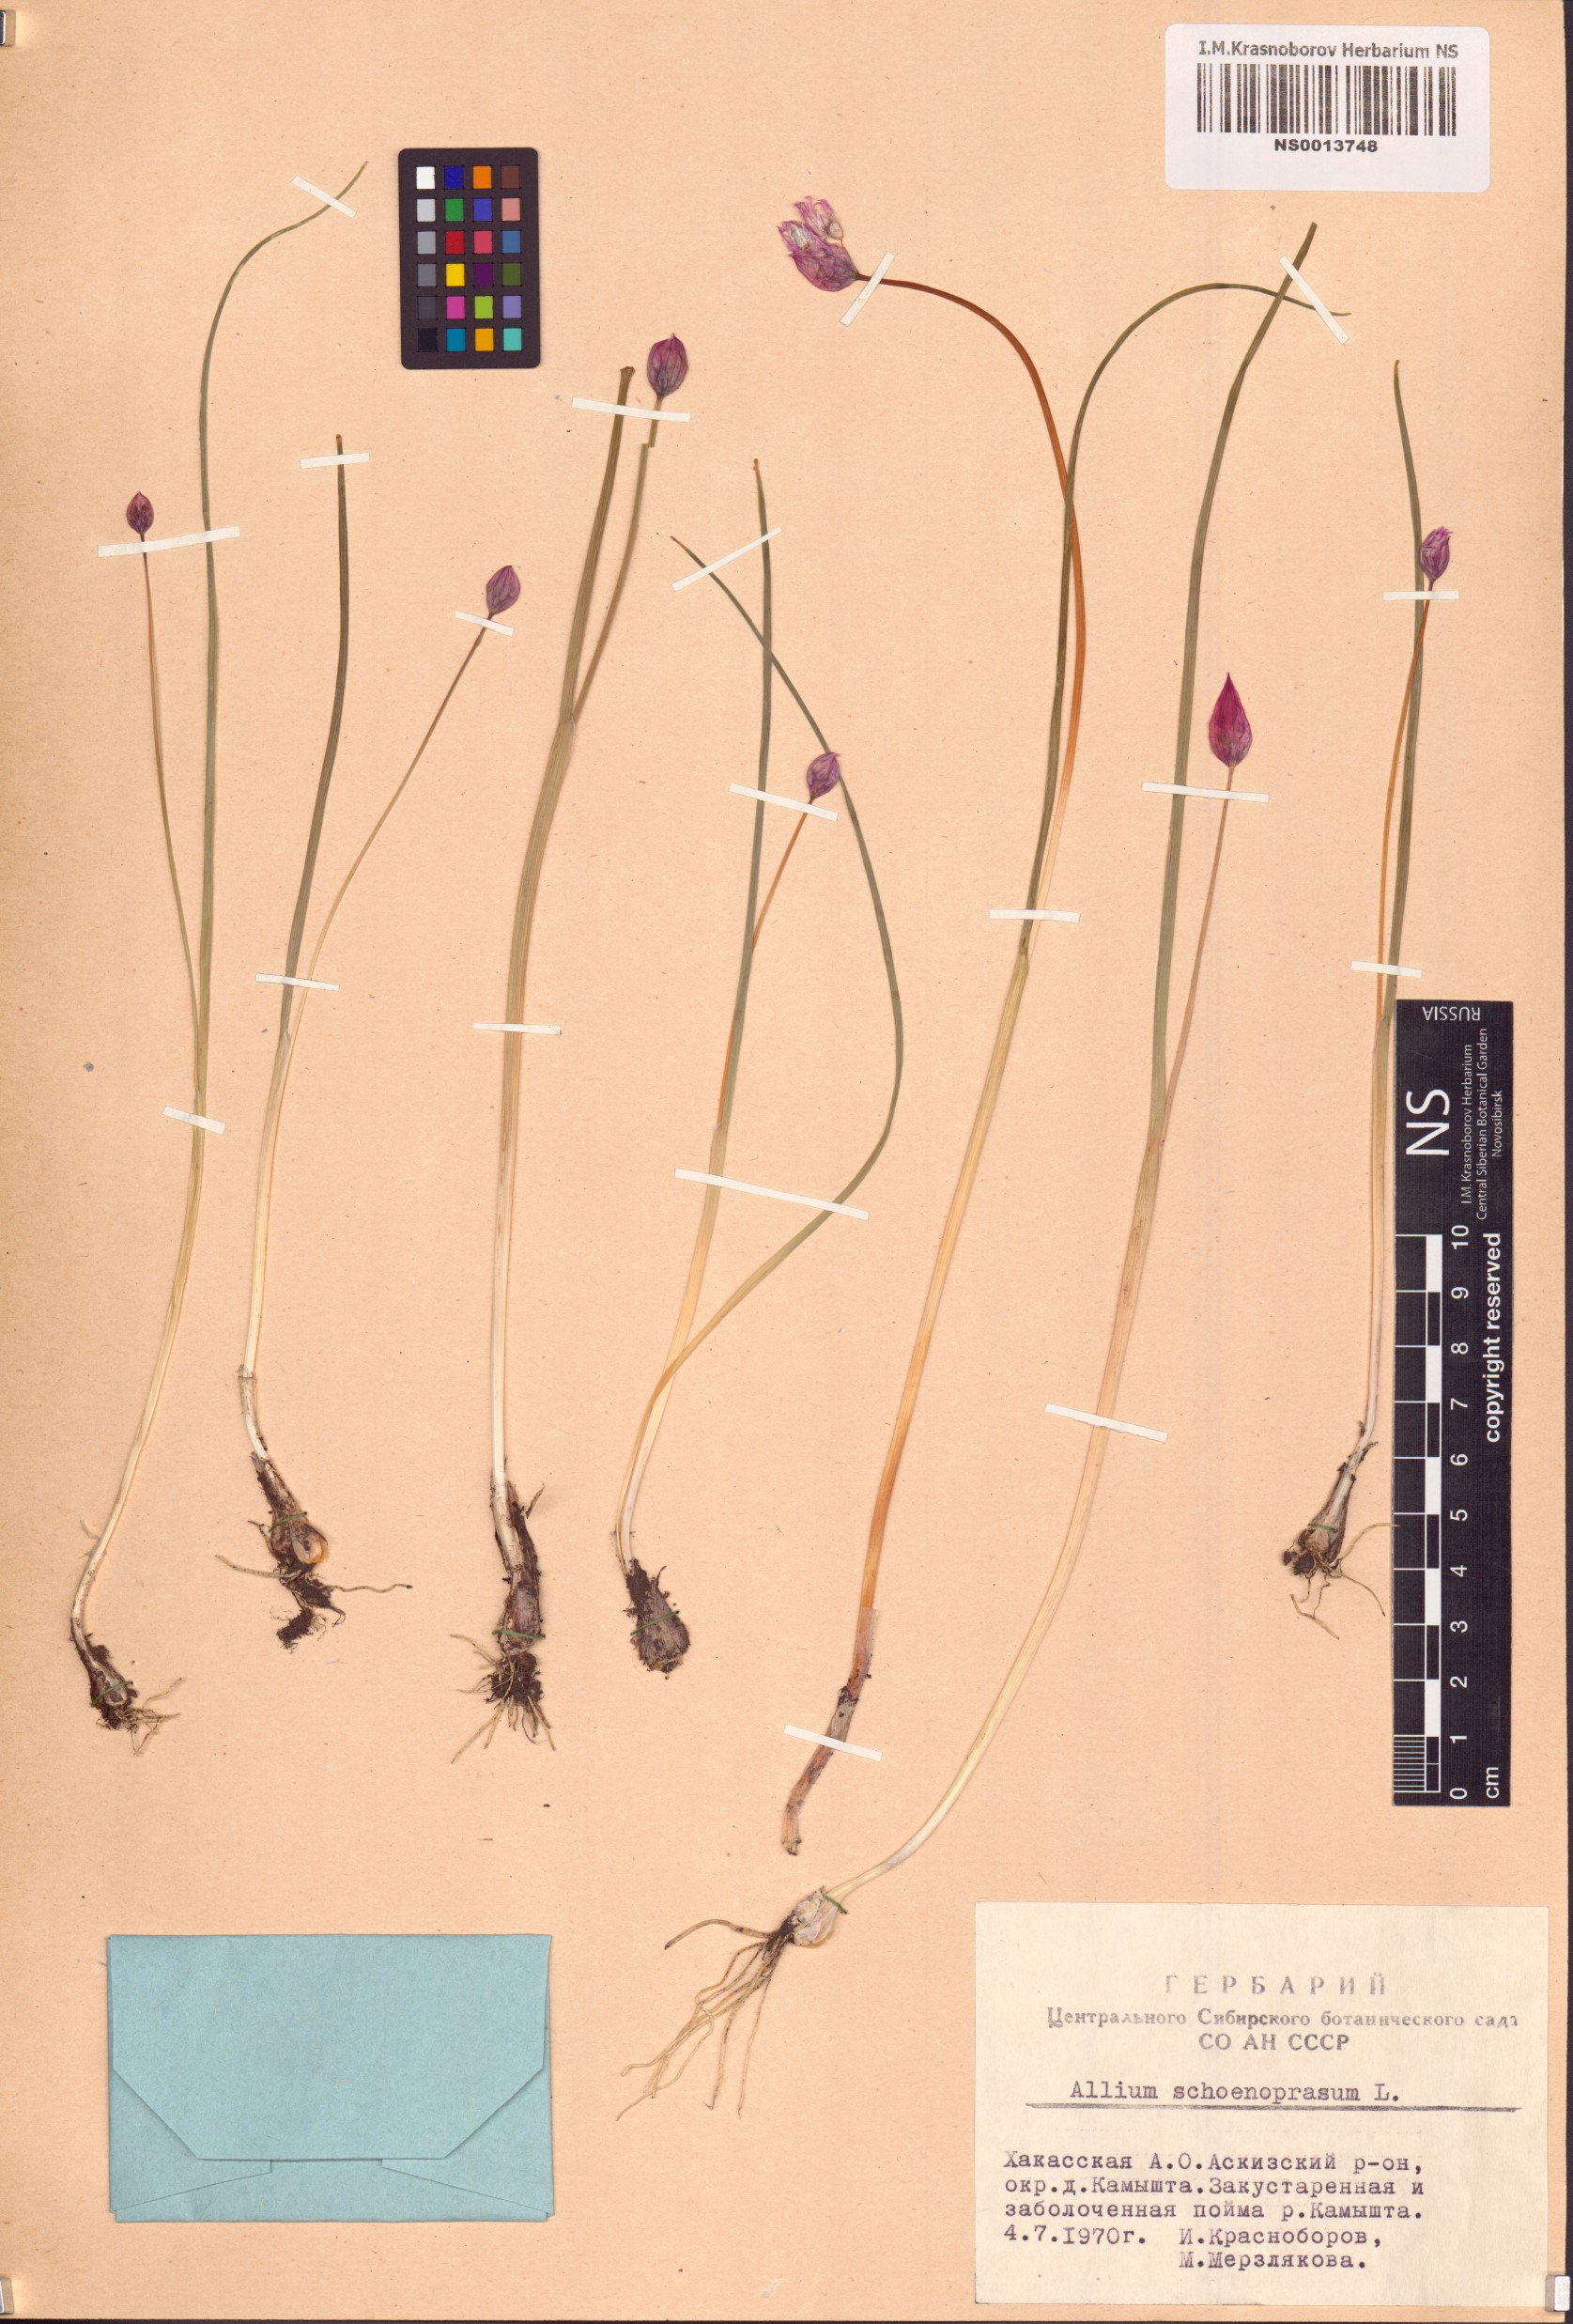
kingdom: Plantae
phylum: Tracheophyta
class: Liliopsida
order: Asparagales
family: Amaryllidaceae
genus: Allium
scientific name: Allium schoenoprasum
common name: Chives
